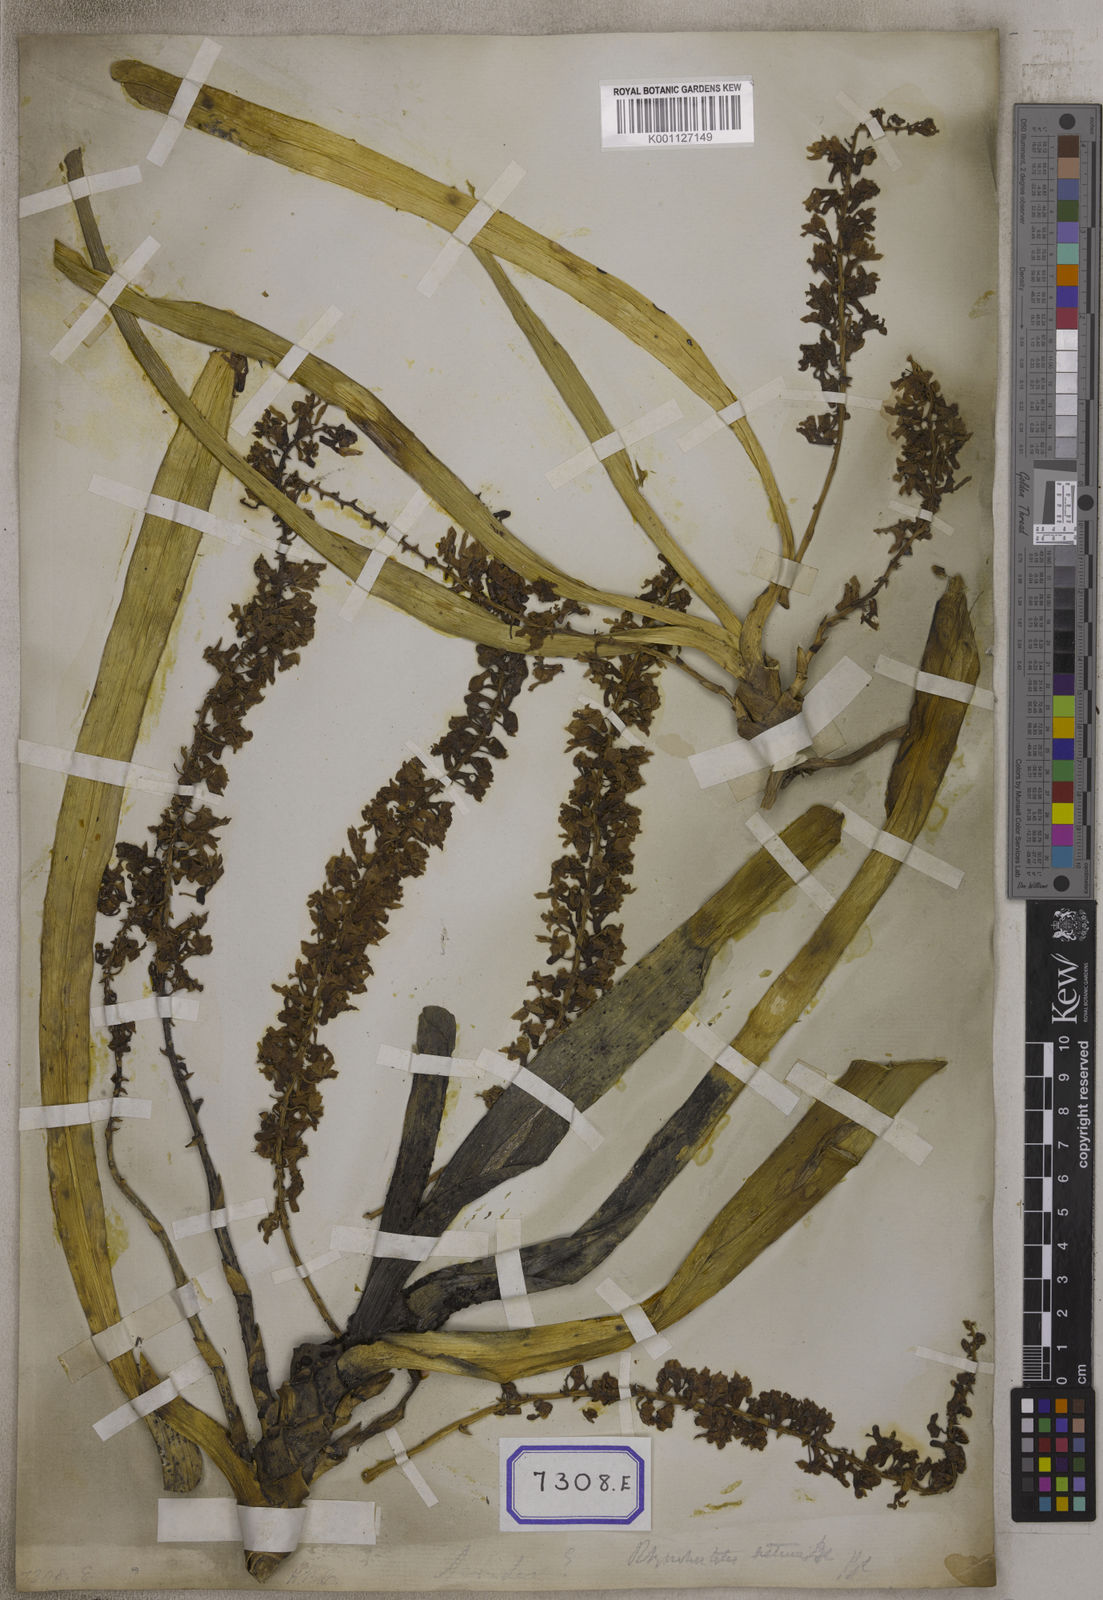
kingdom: Plantae
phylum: Tracheophyta
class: Liliopsida
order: Asparagales
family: Orchidaceae
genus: Saccolabium
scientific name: Saccolabium
